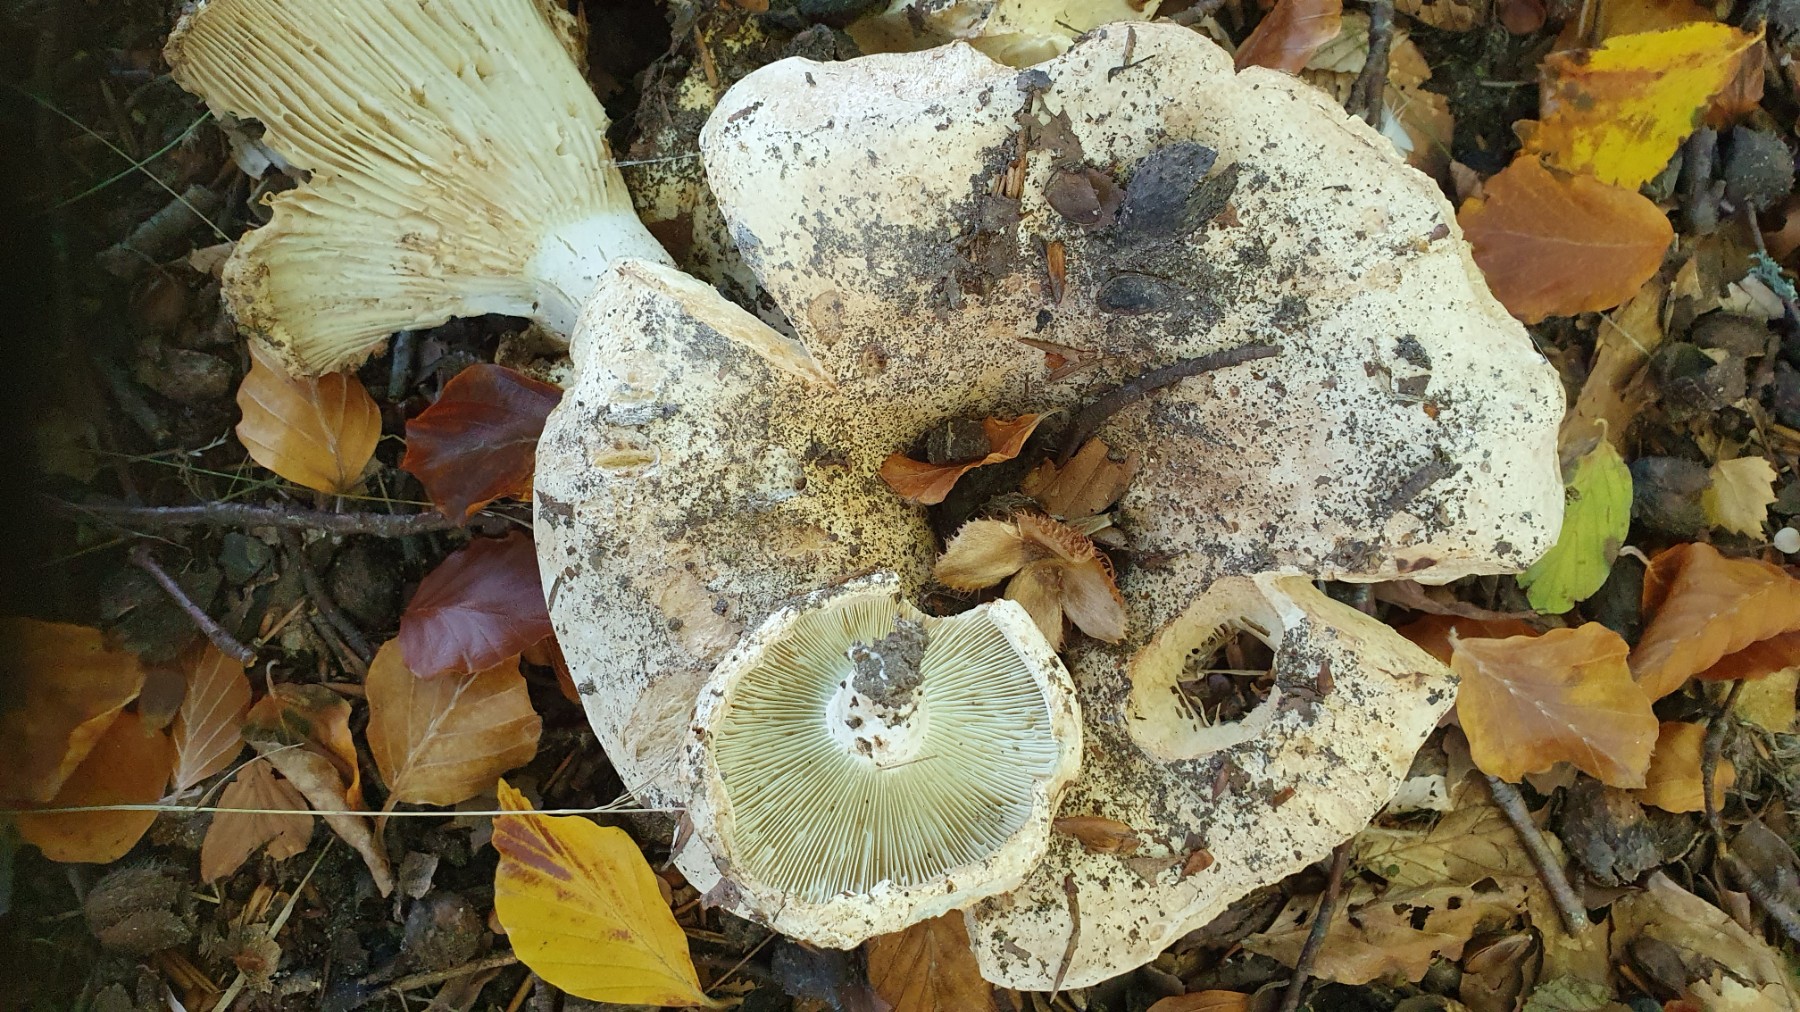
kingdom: Fungi
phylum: Basidiomycota
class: Agaricomycetes
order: Russulales
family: Russulaceae
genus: Russula
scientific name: Russula chloroides
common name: grønhalset tragt-skørhat
